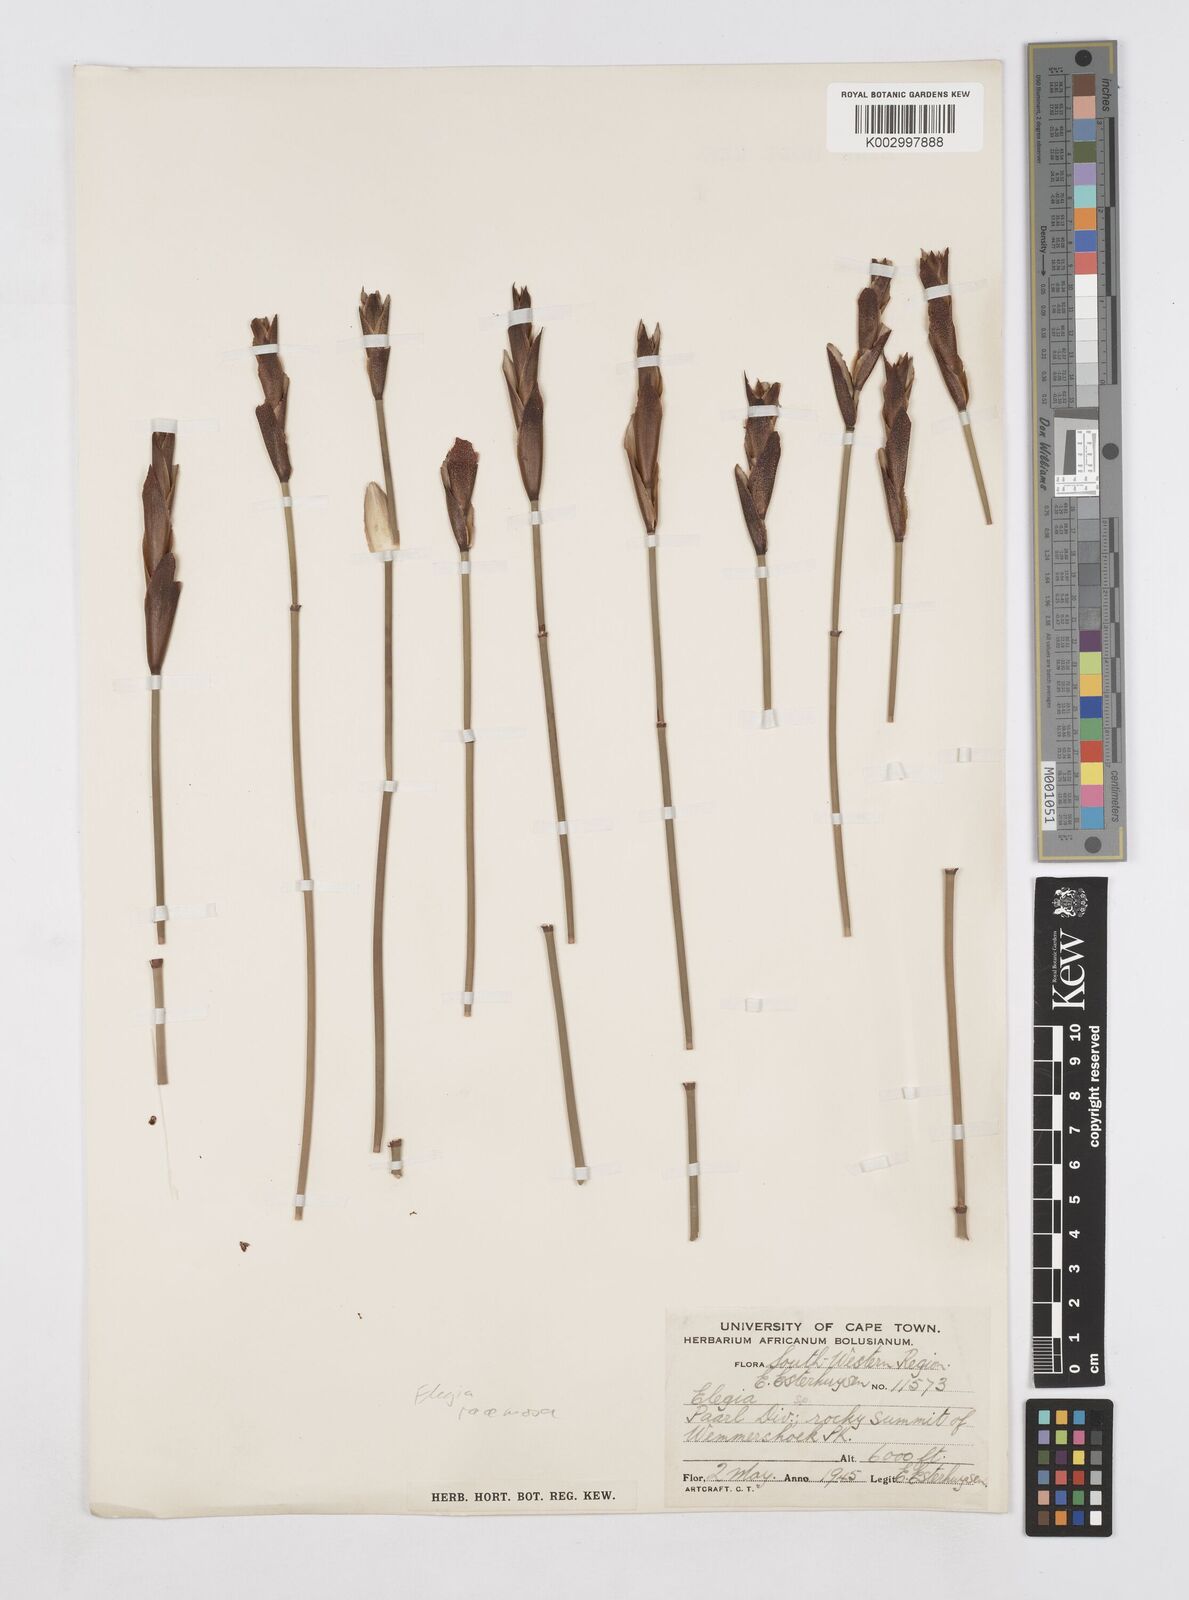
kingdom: Plantae
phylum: Tracheophyta
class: Liliopsida
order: Poales
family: Restionaceae
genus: Elegia
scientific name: Elegia racemosa
